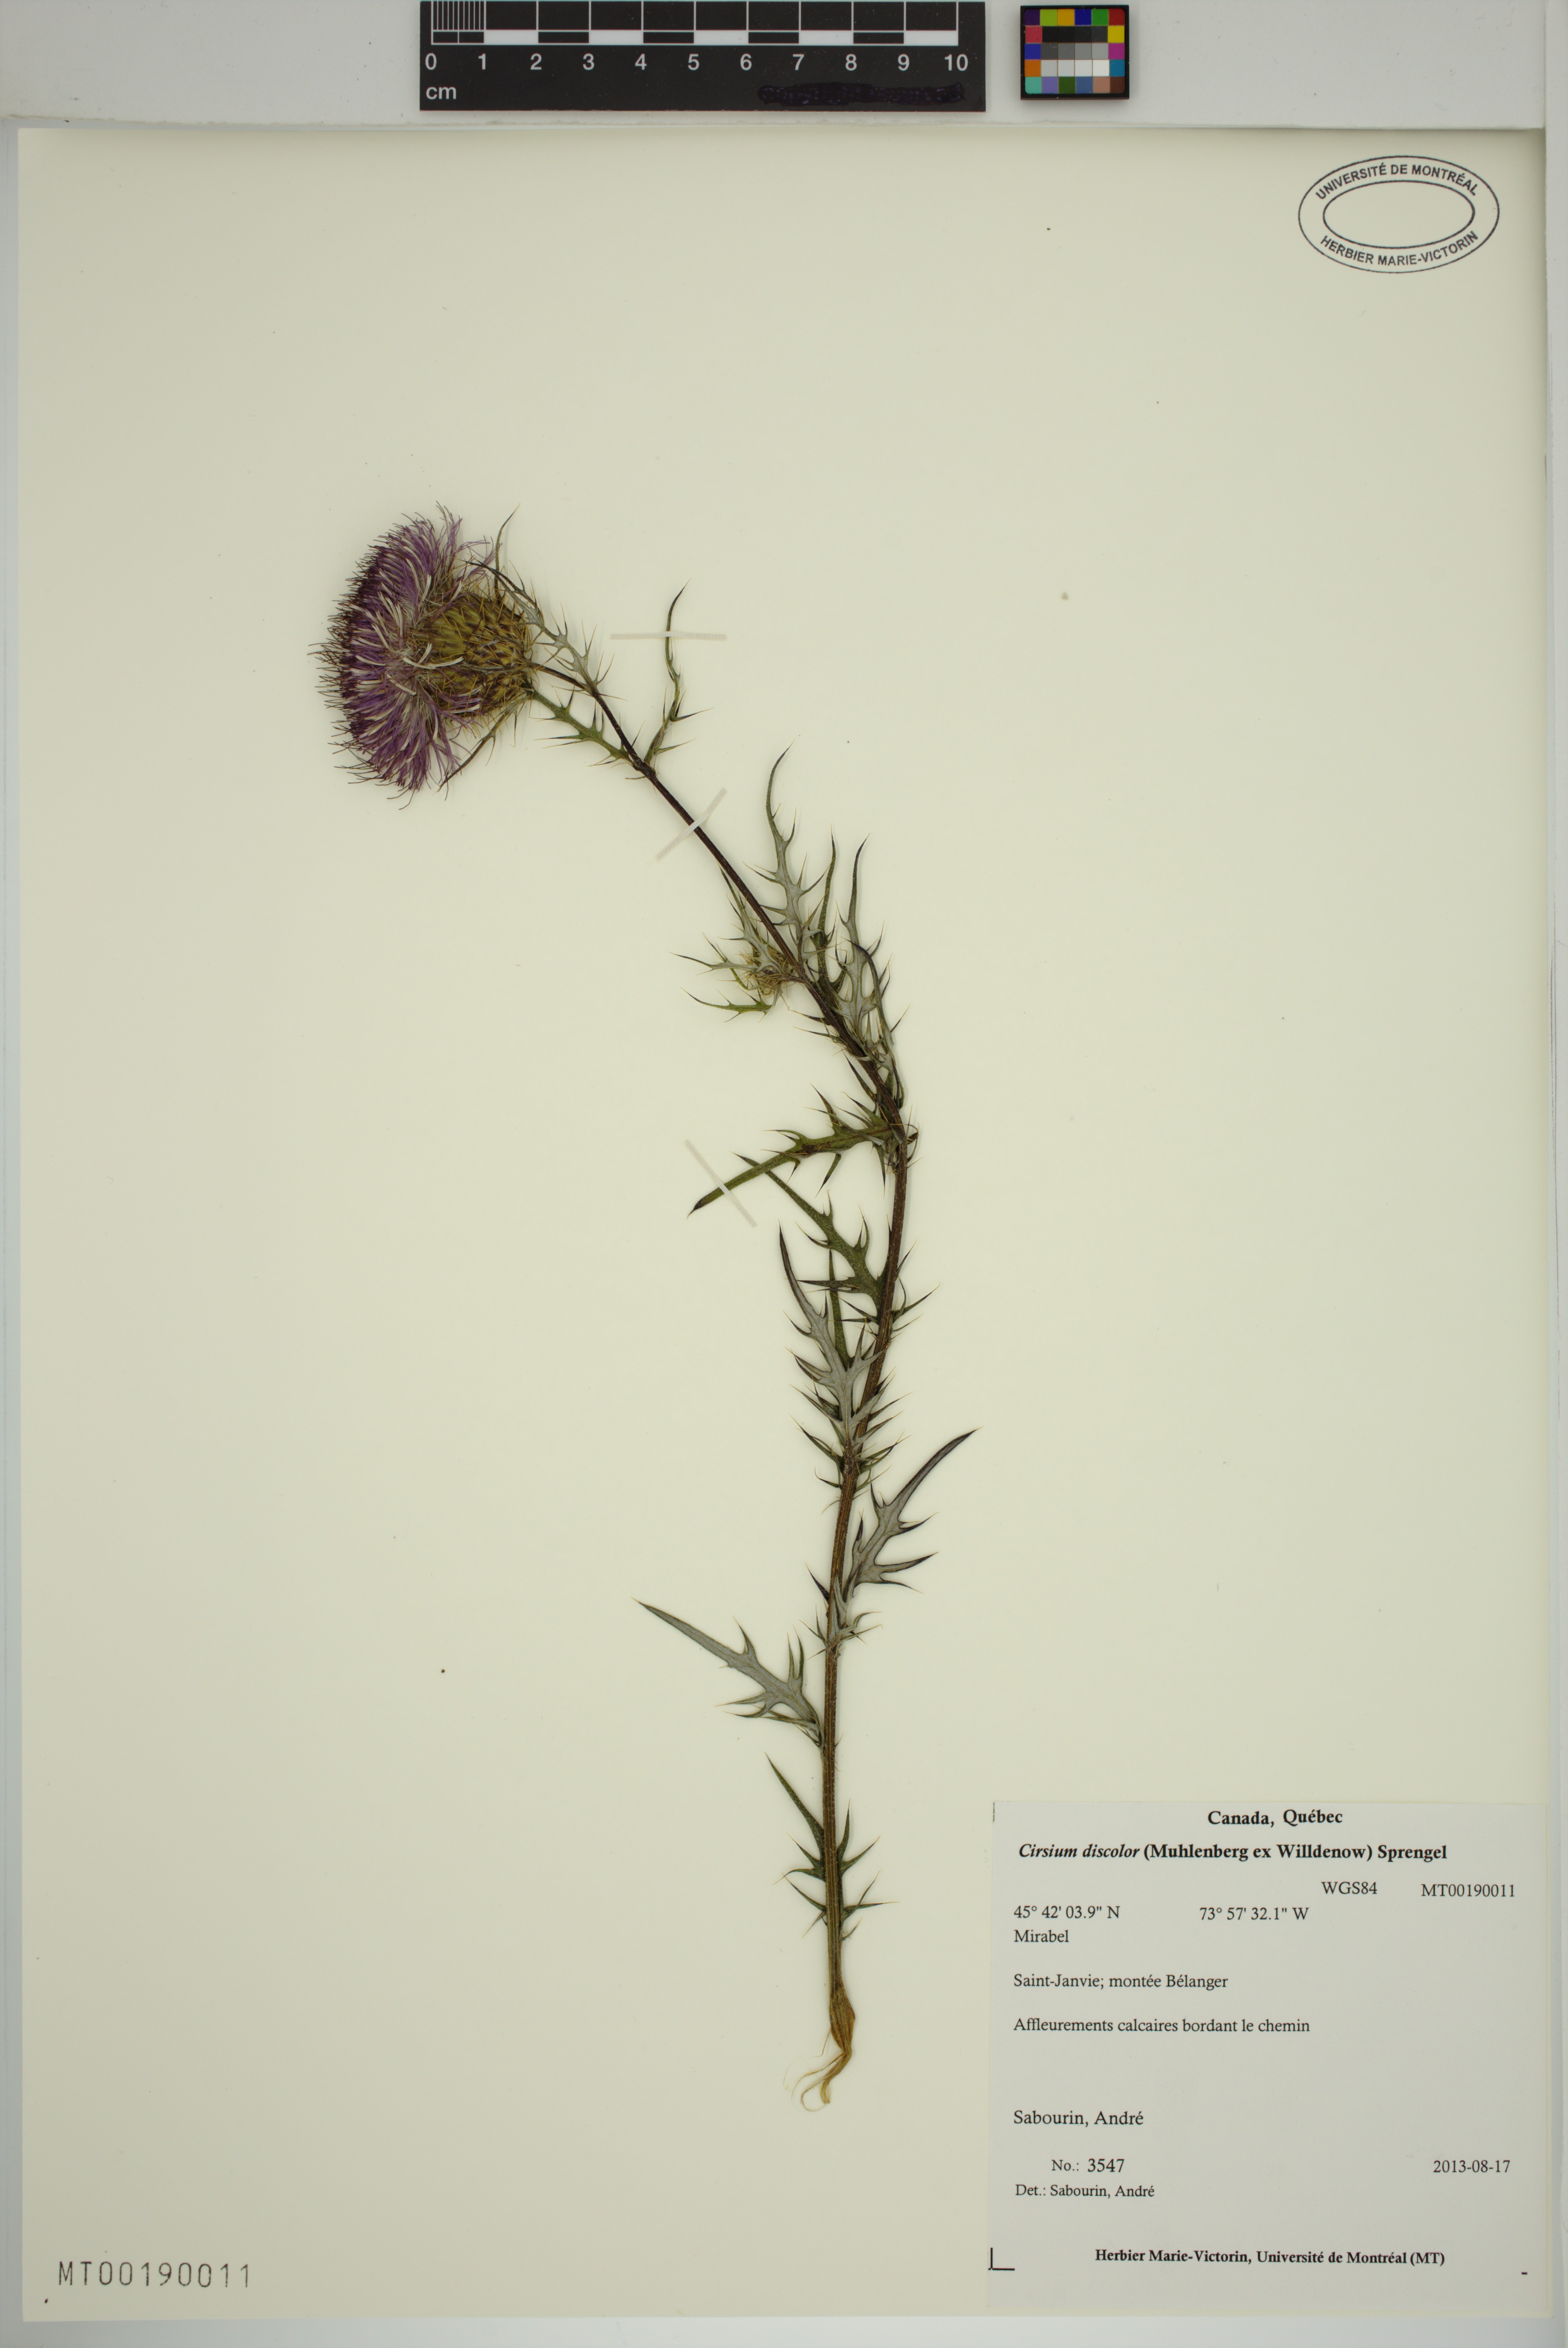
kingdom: Plantae
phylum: Tracheophyta
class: Magnoliopsida
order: Asterales
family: Asteraceae
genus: Cirsium
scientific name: Cirsium discolor
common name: Field thistle
